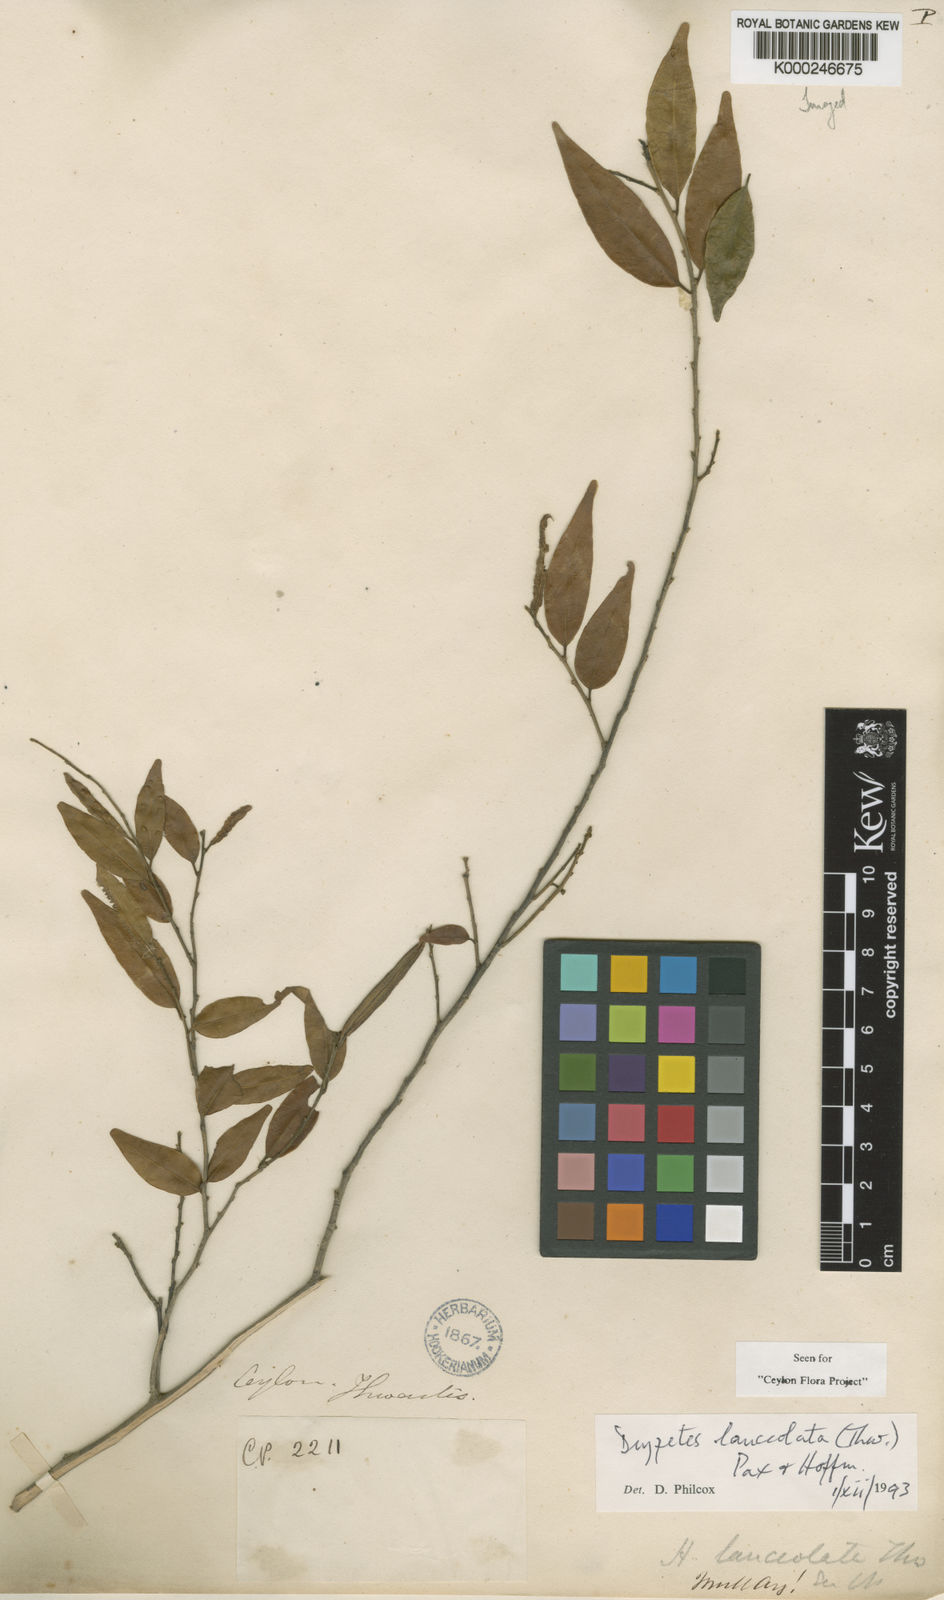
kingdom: Plantae
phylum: Tracheophyta
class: Magnoliopsida
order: Malpighiales
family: Putranjivaceae
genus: Drypetes
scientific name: Drypetes sumatrana
